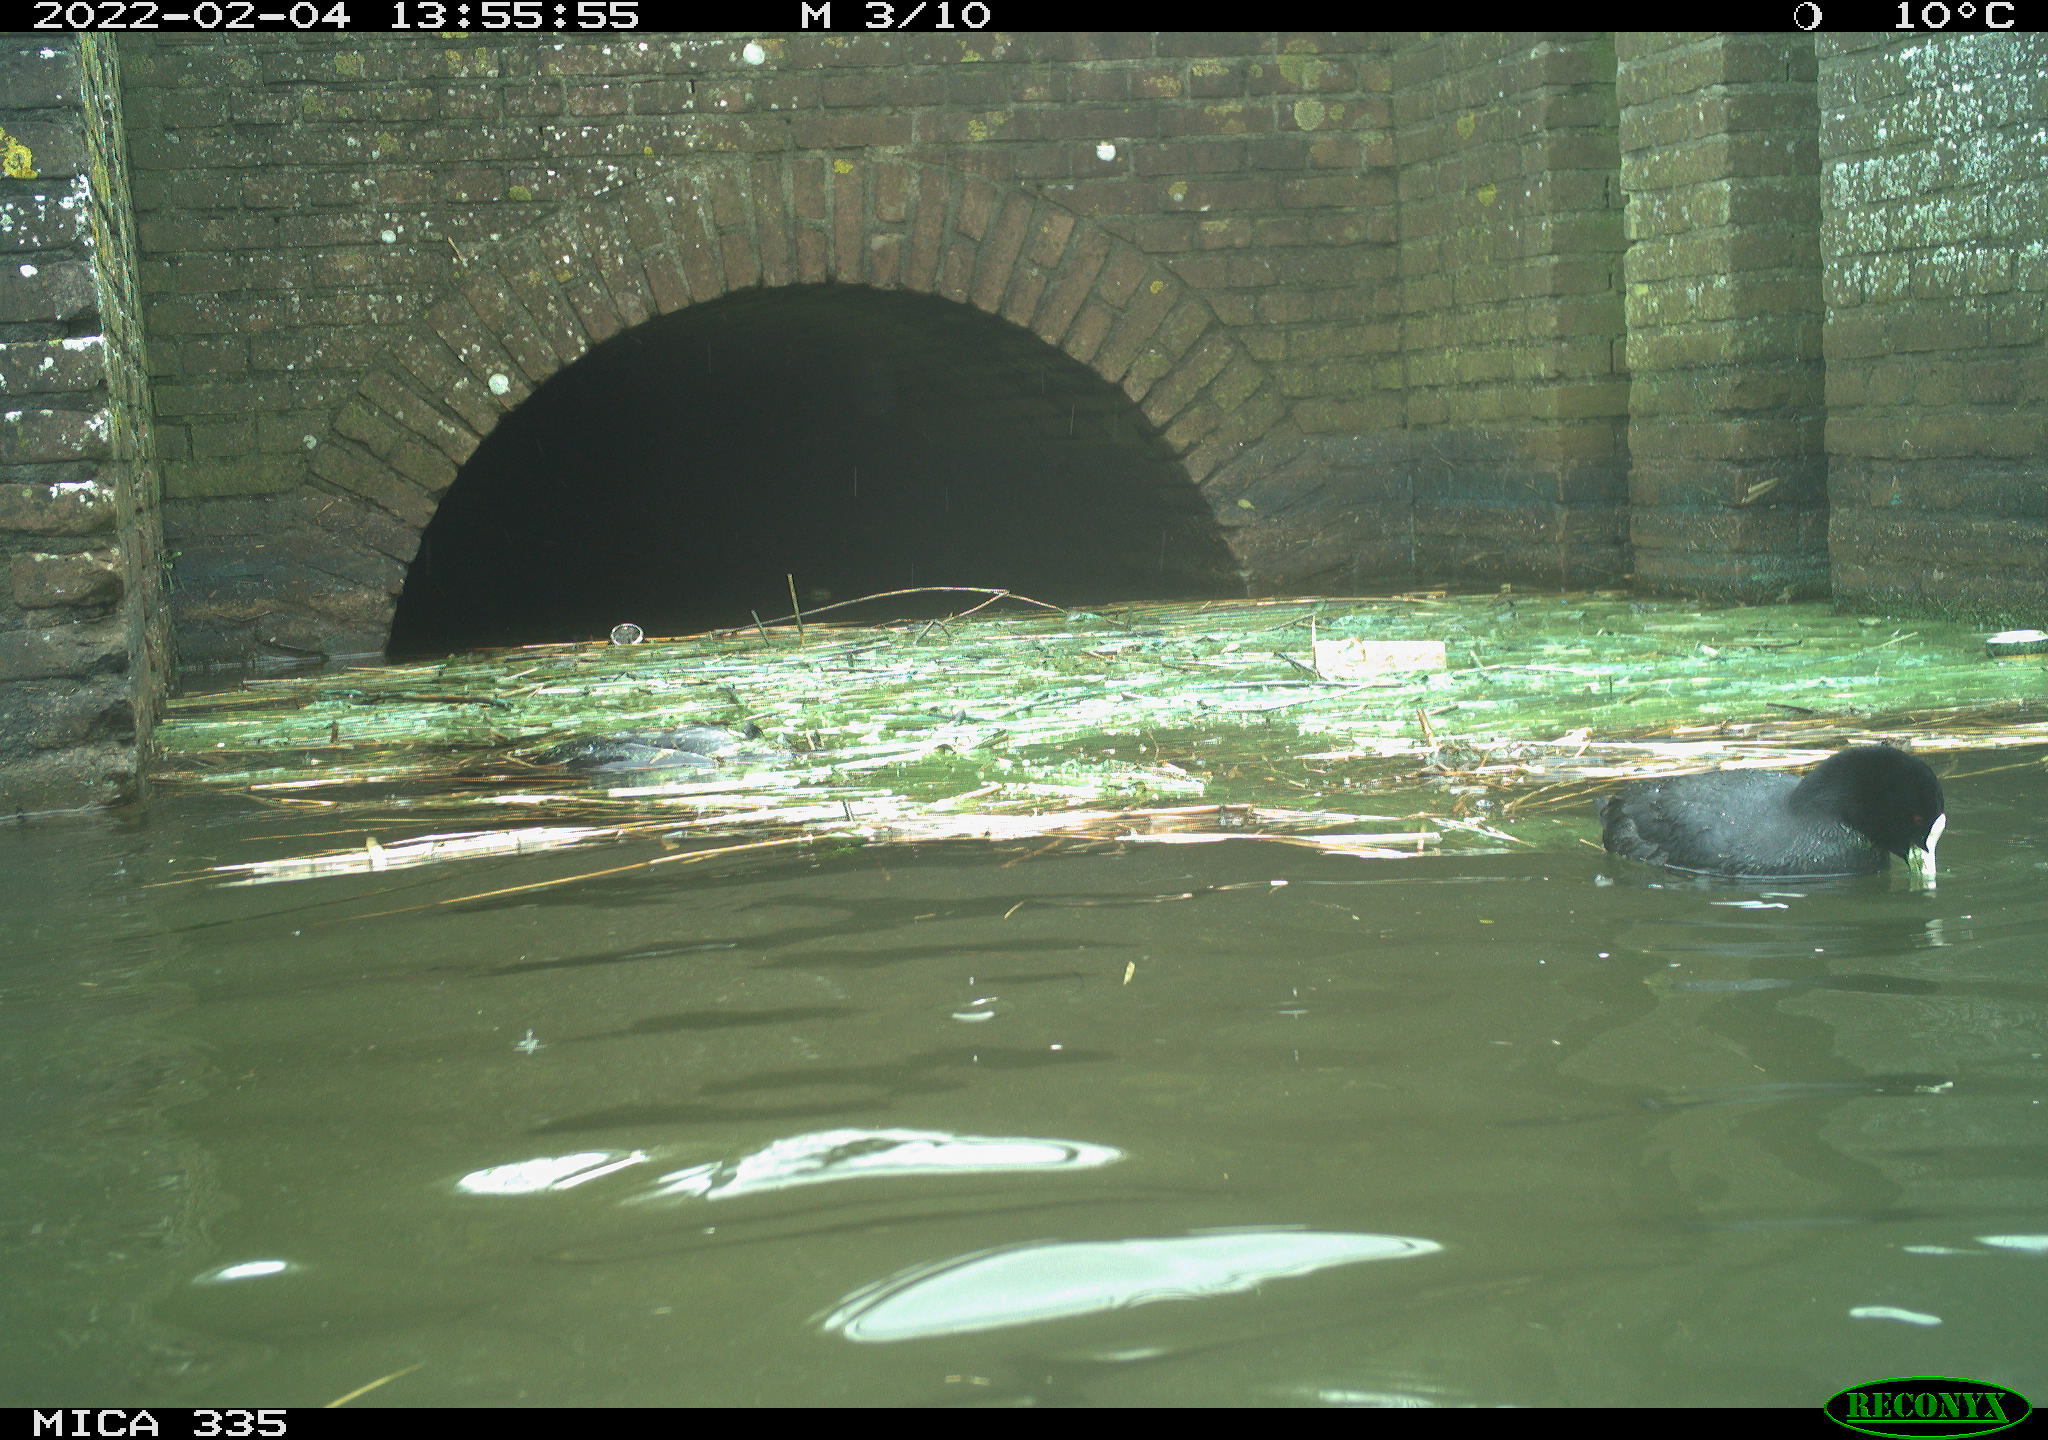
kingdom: Animalia
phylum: Chordata
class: Aves
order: Gruiformes
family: Rallidae
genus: Fulica
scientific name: Fulica atra
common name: Eurasian coot
